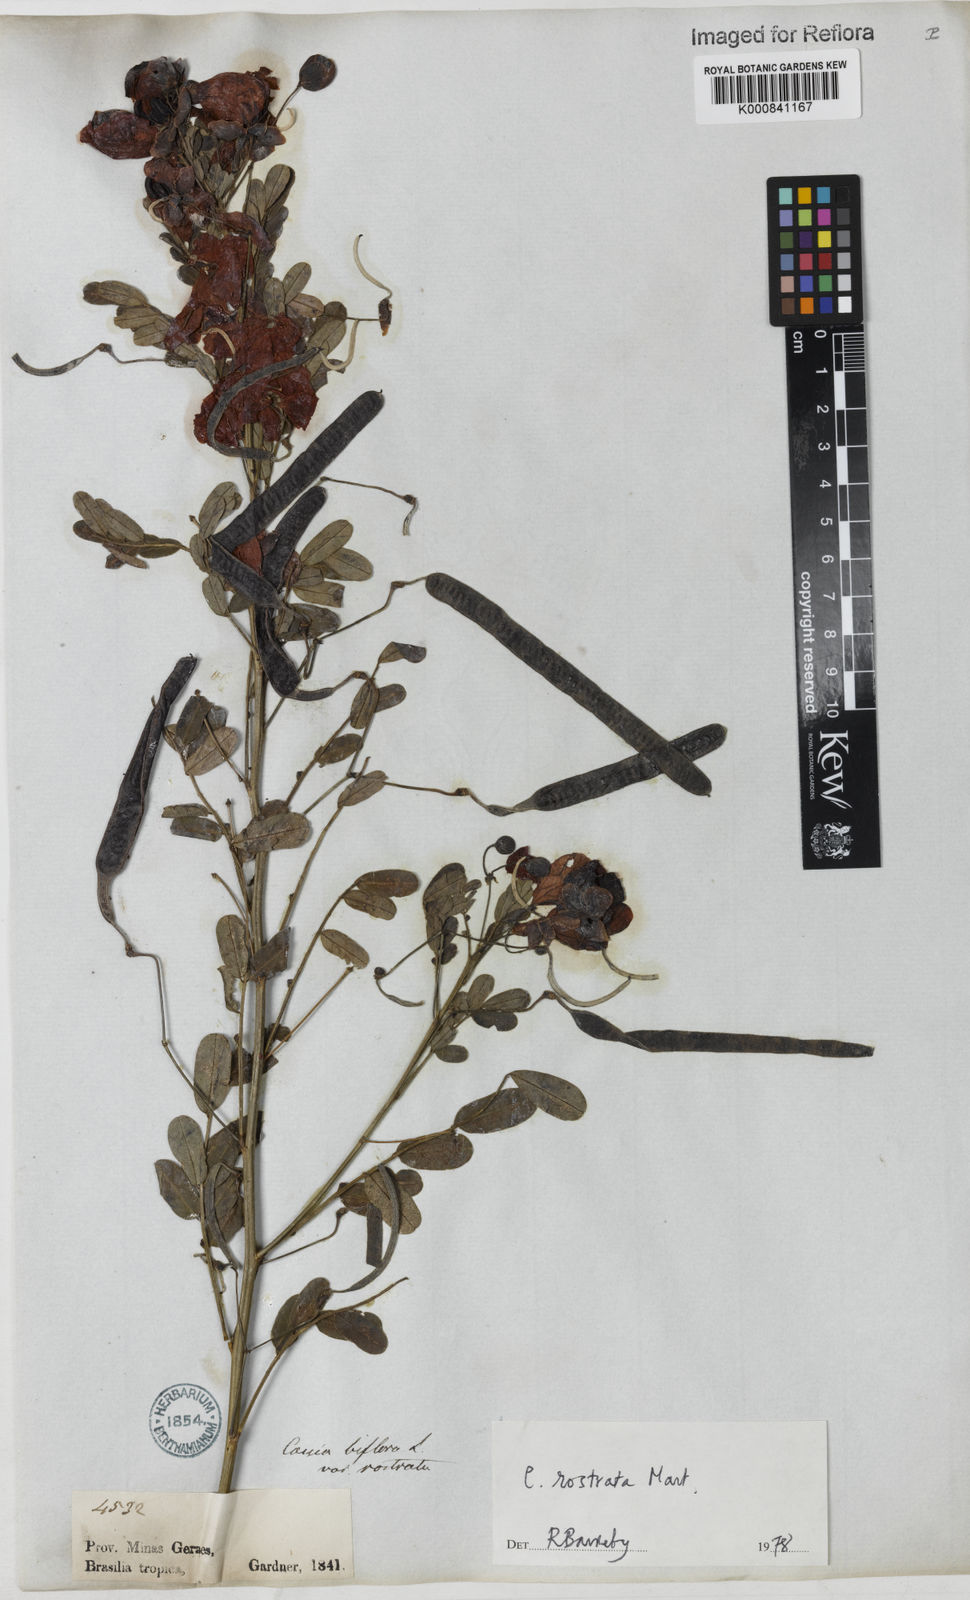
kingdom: Plantae
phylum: Tracheophyta
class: Magnoliopsida
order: Fabales
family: Fabaceae
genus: Senna
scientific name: Senna rostrata
